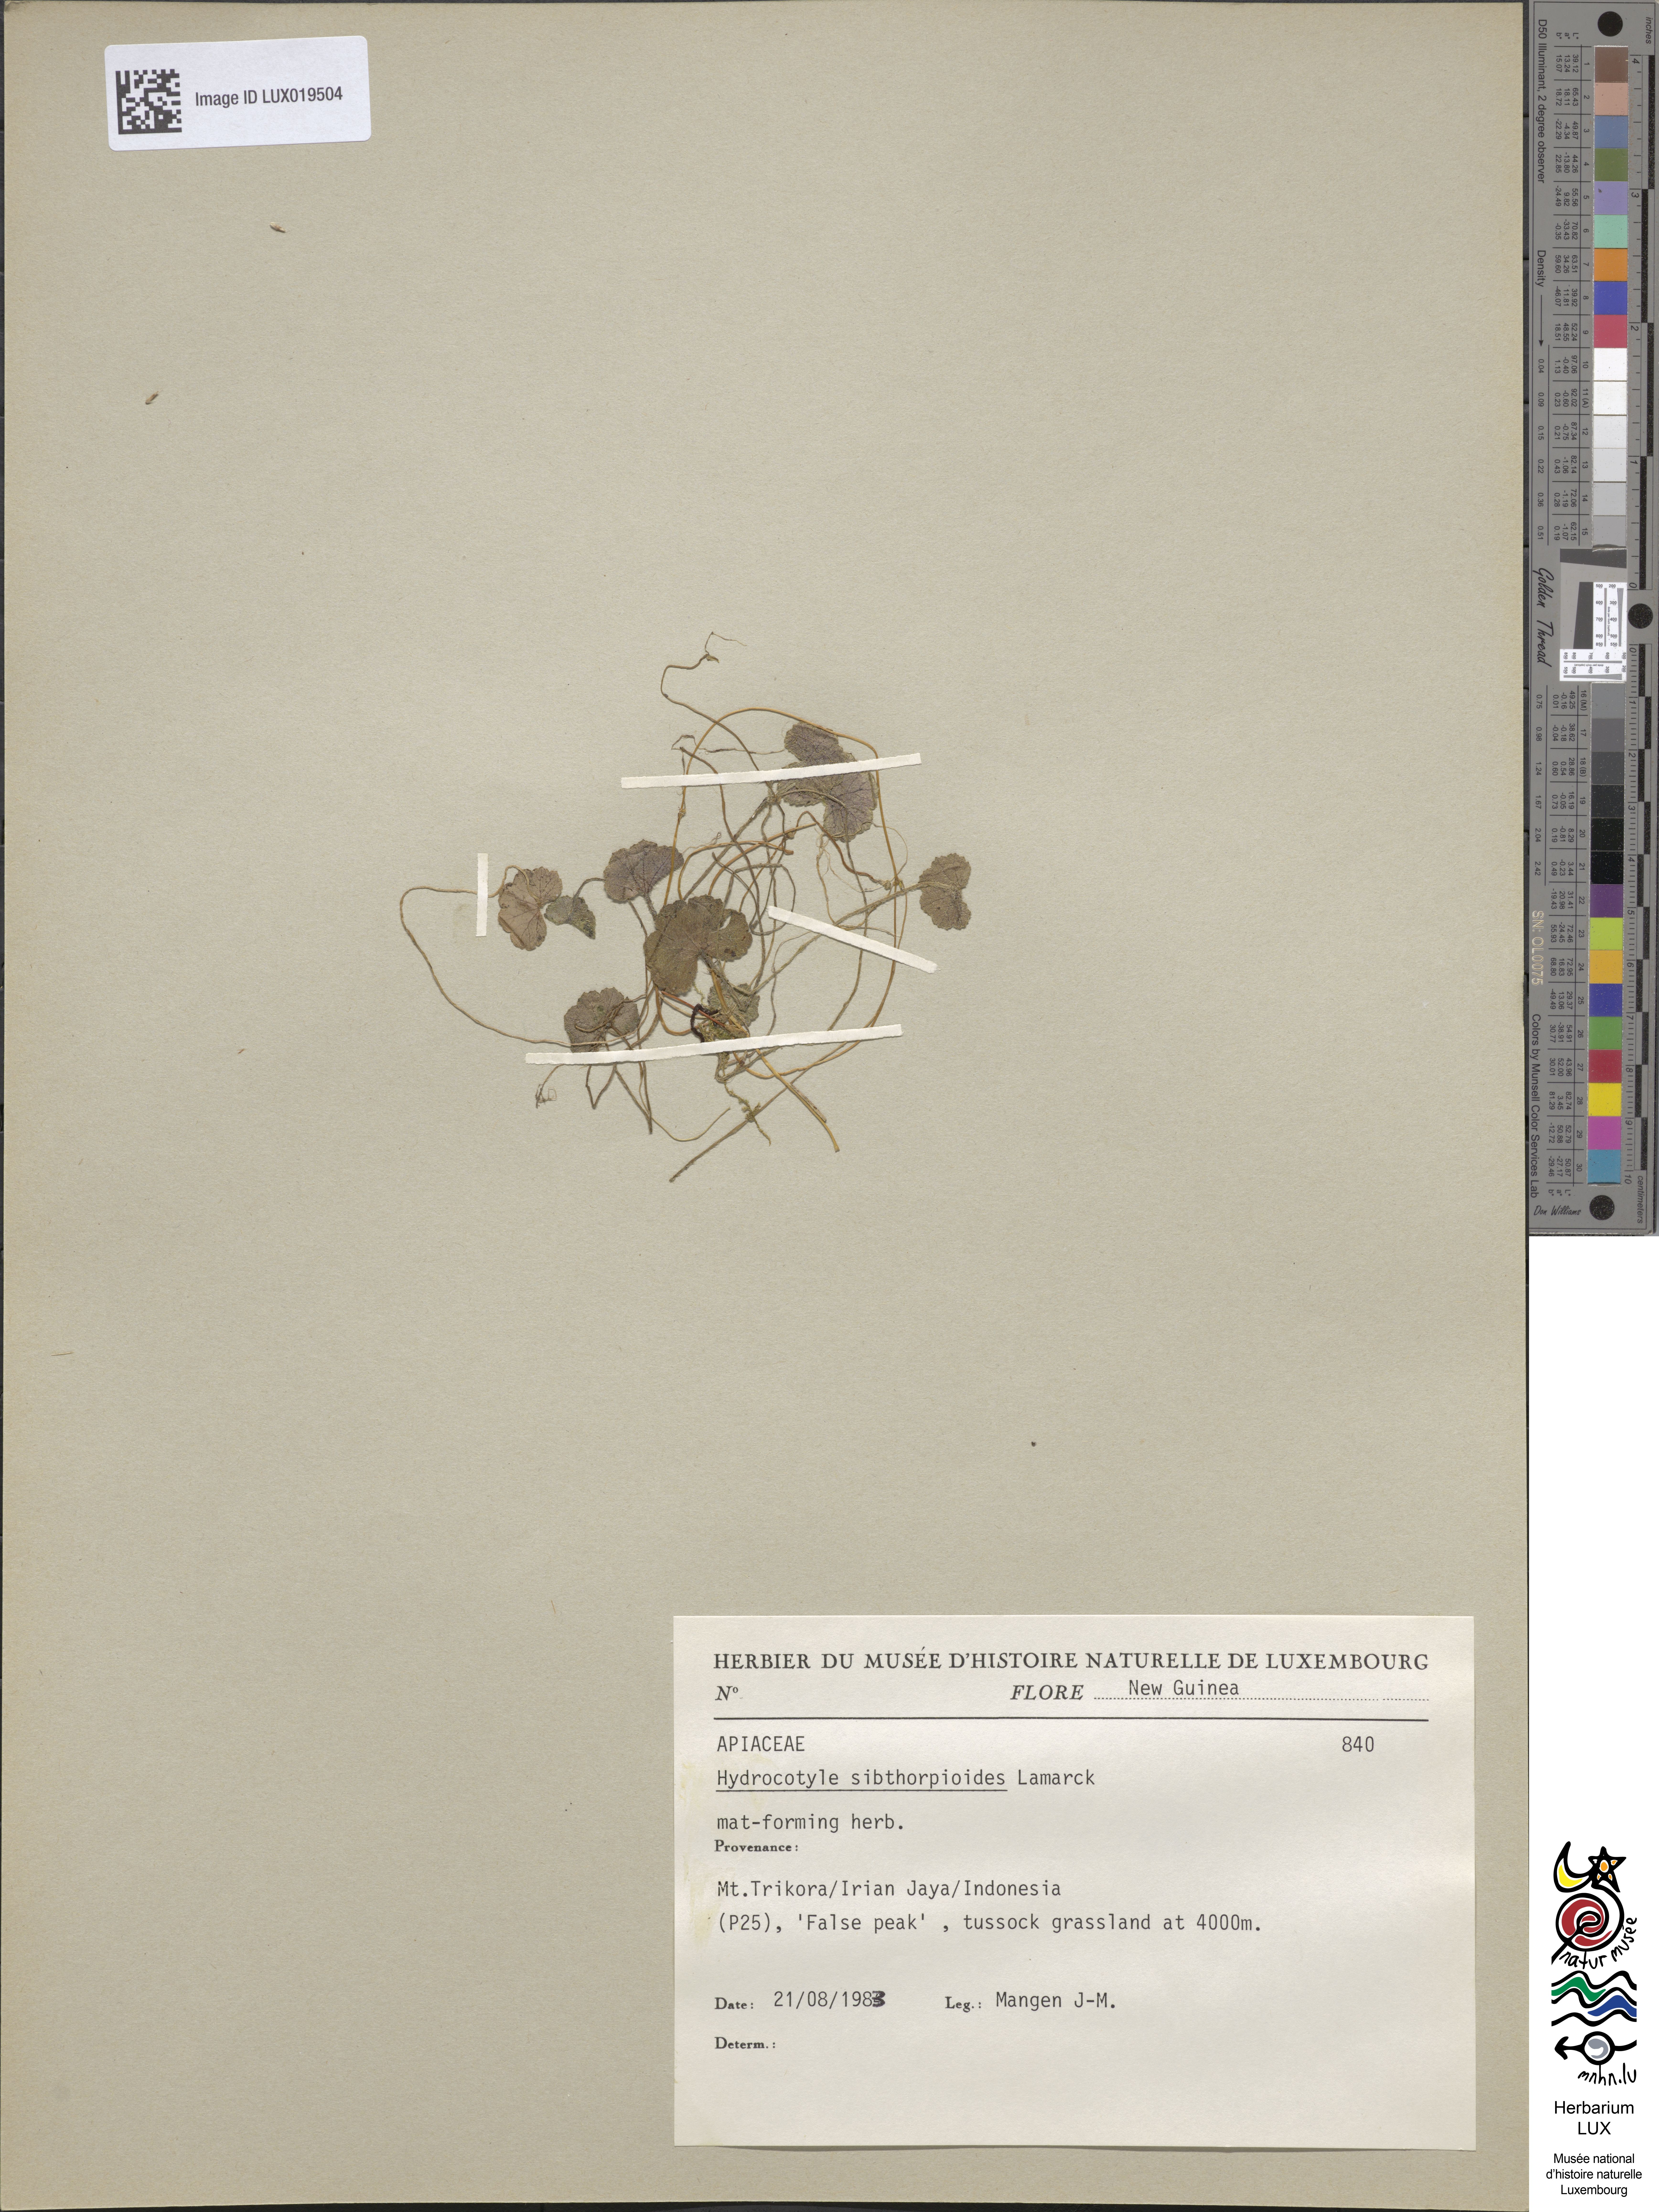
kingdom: Plantae
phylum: Tracheophyta
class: Magnoliopsida
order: Apiales
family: Araliaceae
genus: Hydrocotyle
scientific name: Hydrocotyle sibthorpioides
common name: Lawn marshpennywort
